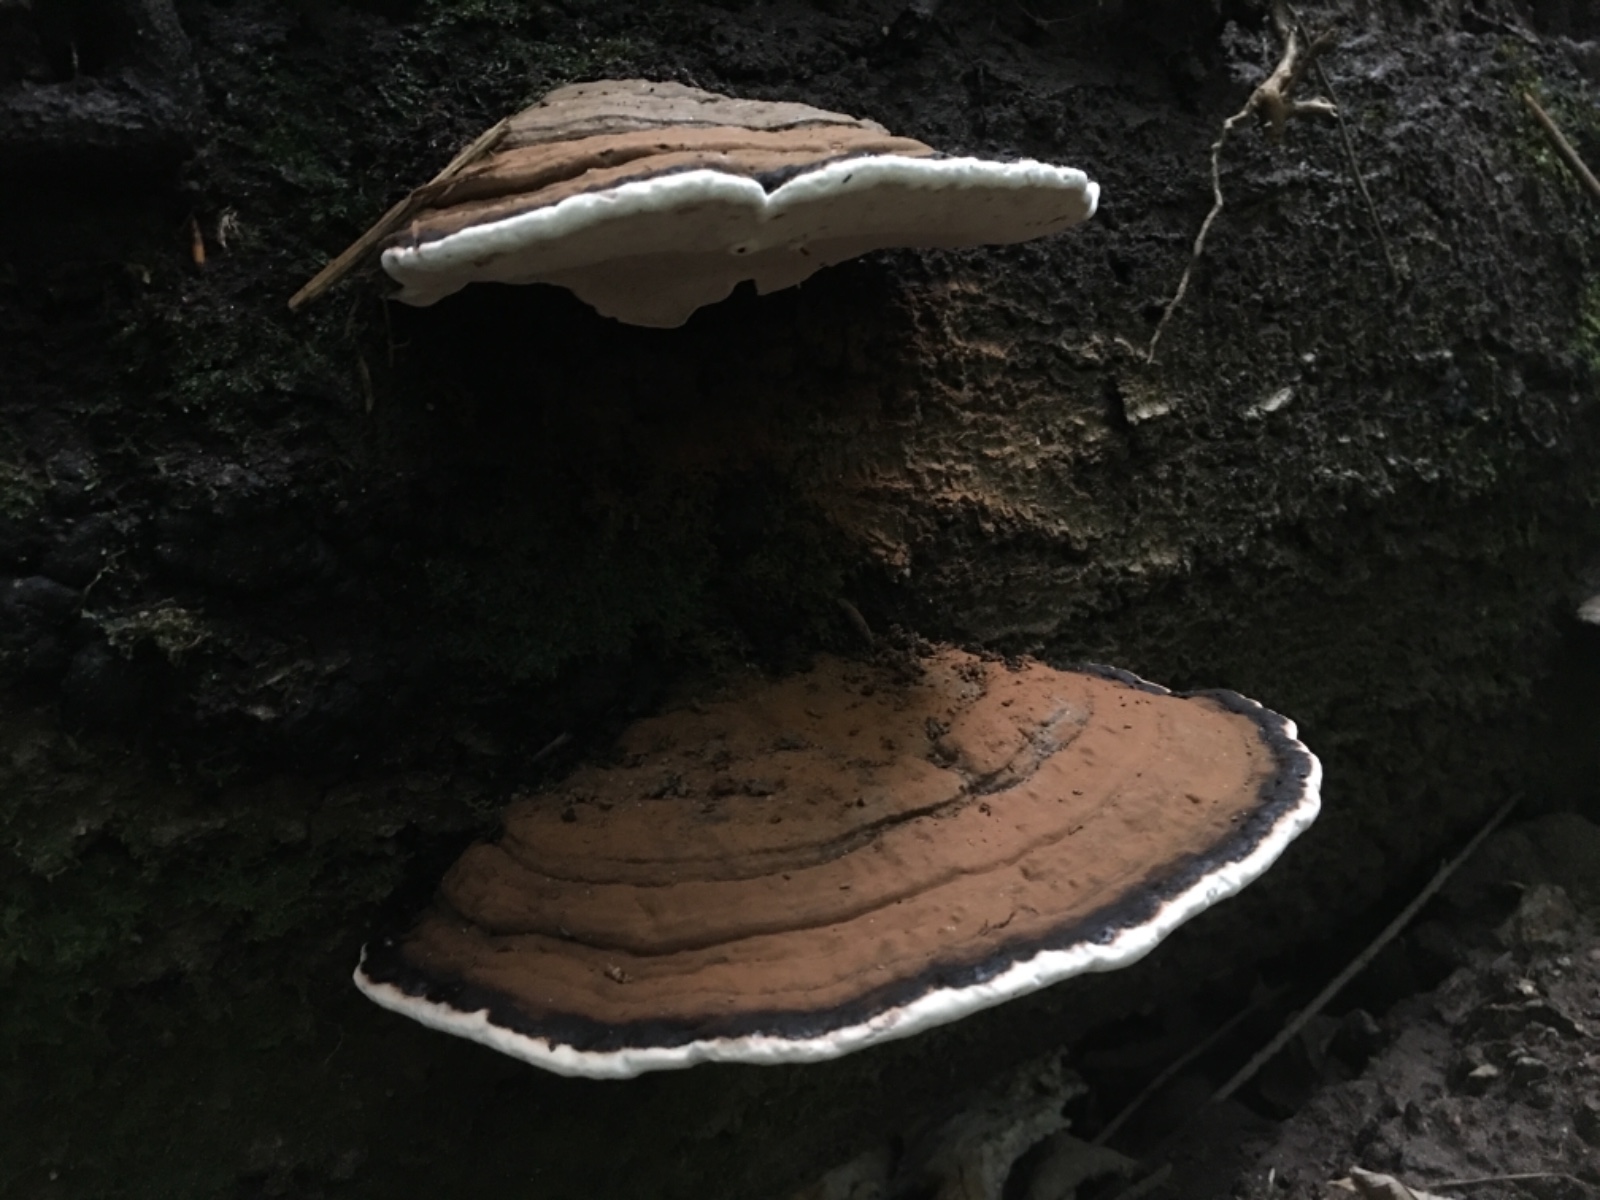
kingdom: Fungi
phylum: Basidiomycota
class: Agaricomycetes
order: Polyporales
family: Polyporaceae
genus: Ganoderma
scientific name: Ganoderma applanatum
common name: flad lakporesvamp
